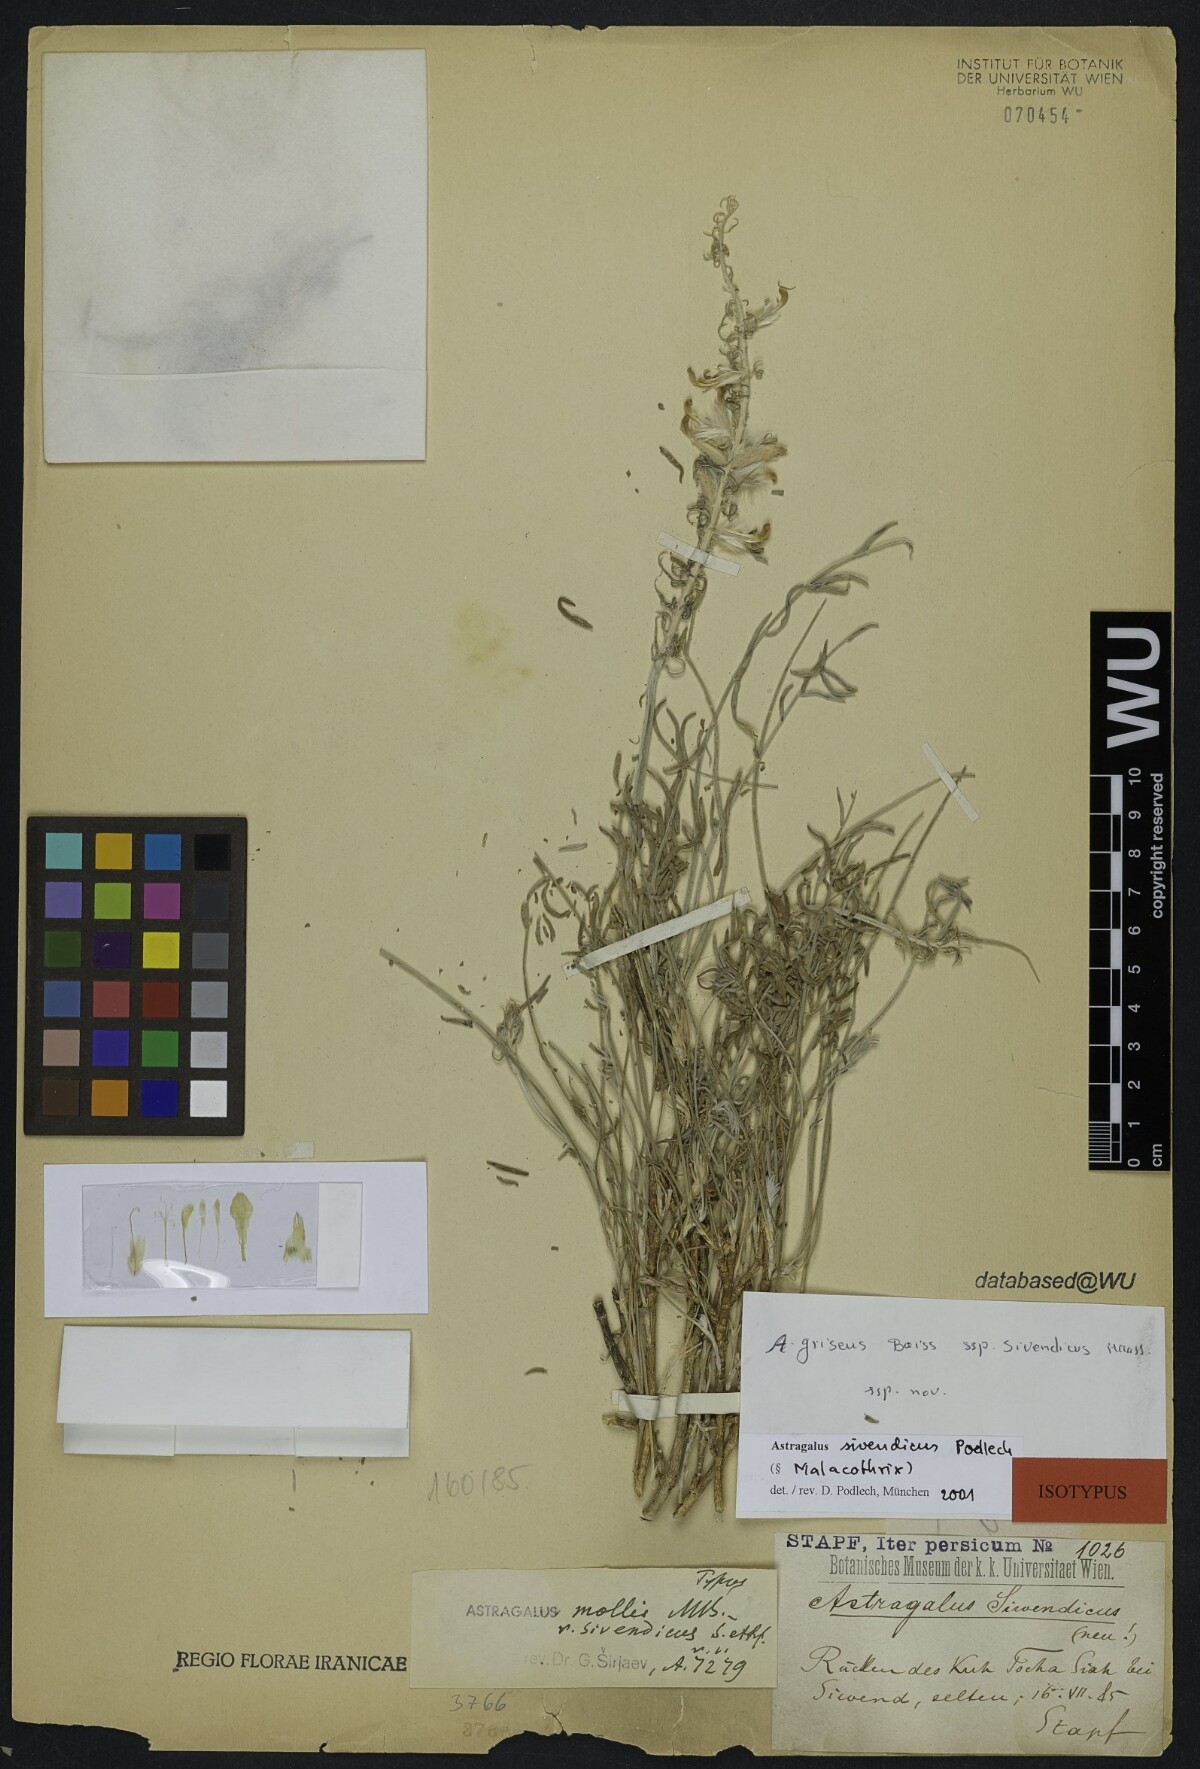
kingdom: Plantae
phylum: Tracheophyta
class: Magnoliopsida
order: Fabales
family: Fabaceae
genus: Astragalus
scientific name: Astragalus sivendicus
